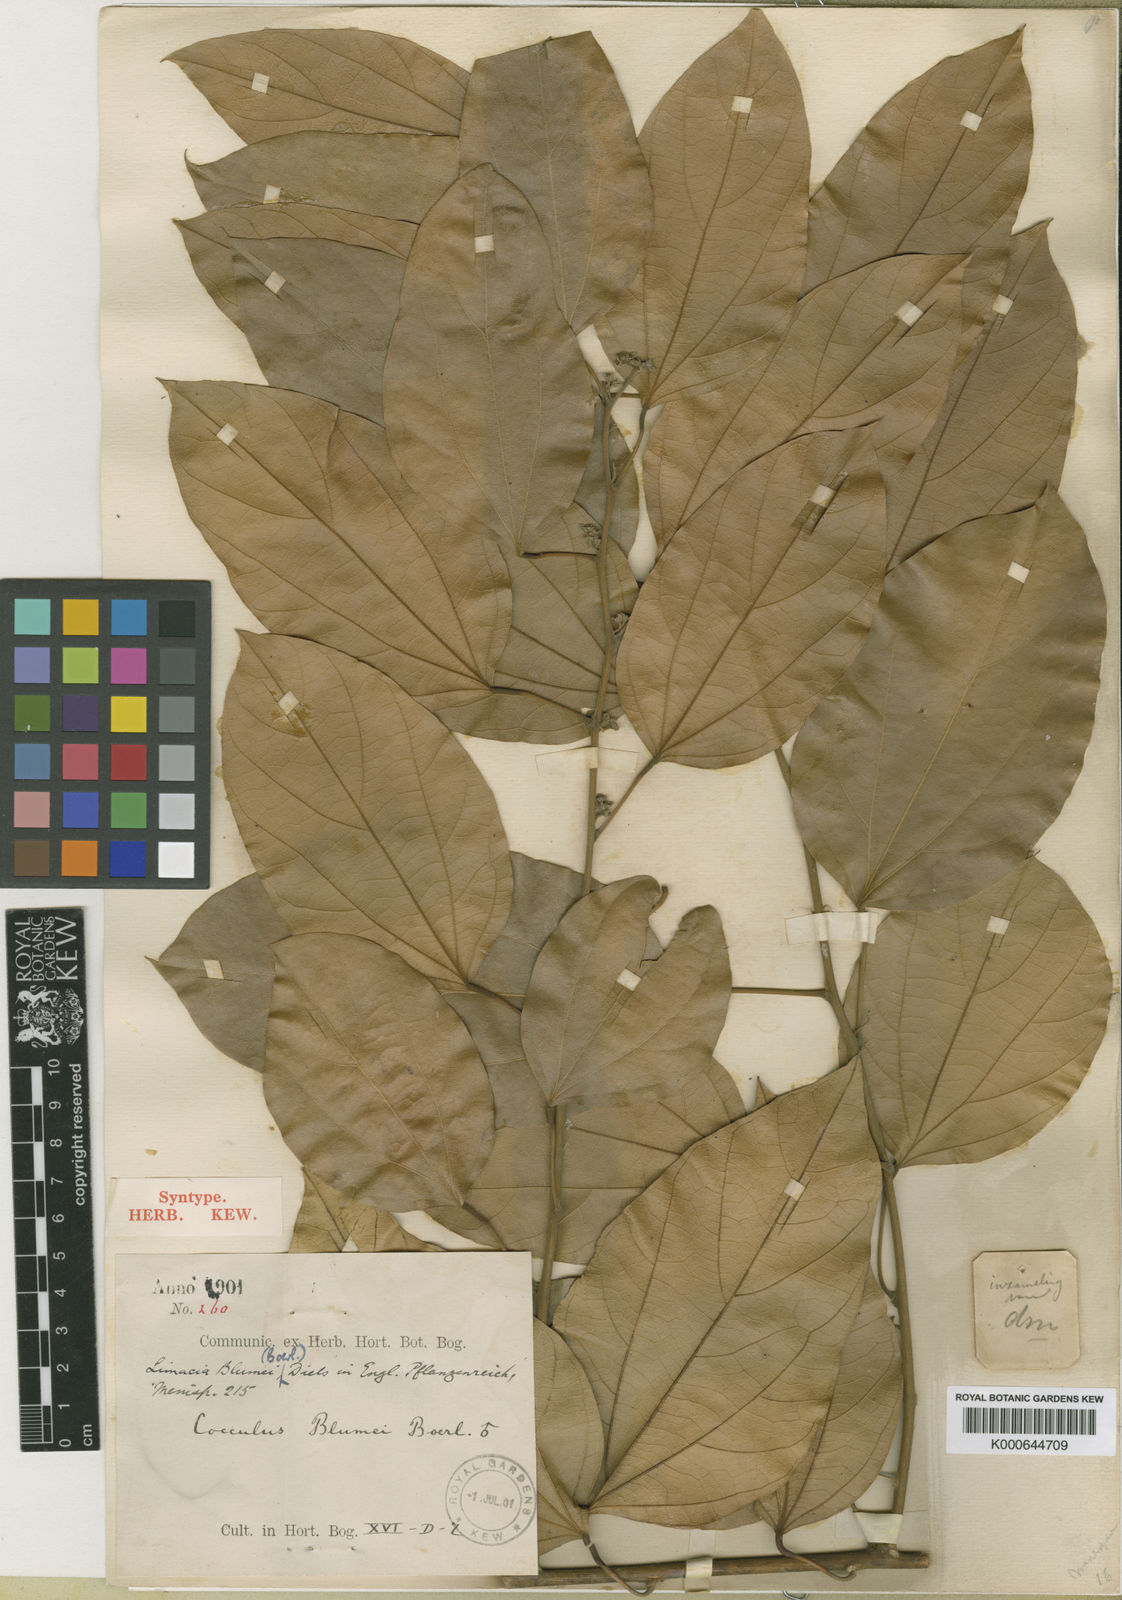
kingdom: Plantae
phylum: Tracheophyta
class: Magnoliopsida
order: Ranunculales
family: Menispermaceae
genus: Limacia
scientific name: Limacia blumei
